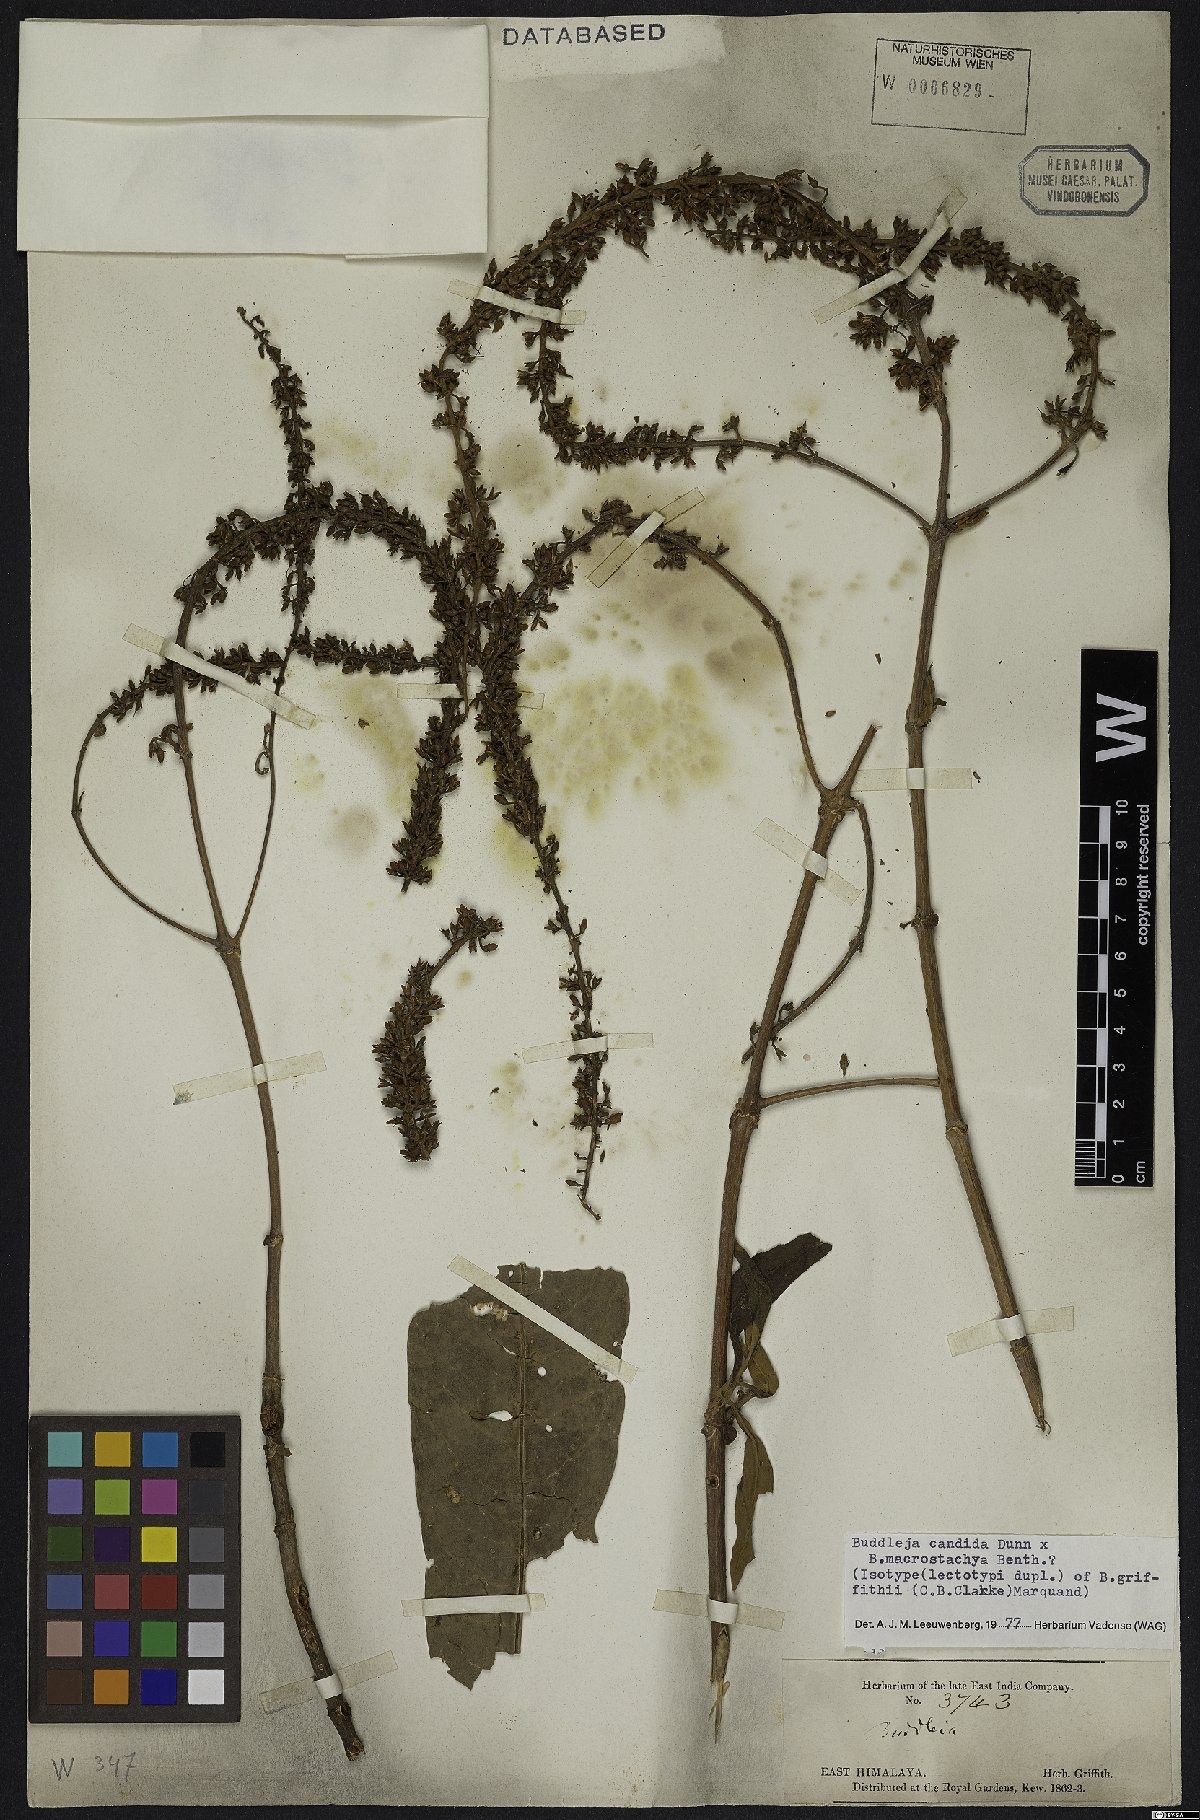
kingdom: Plantae
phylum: Tracheophyta
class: Magnoliopsida
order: Lamiales
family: Scrophulariaceae
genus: Buddleja
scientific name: Buddleja griffithii
